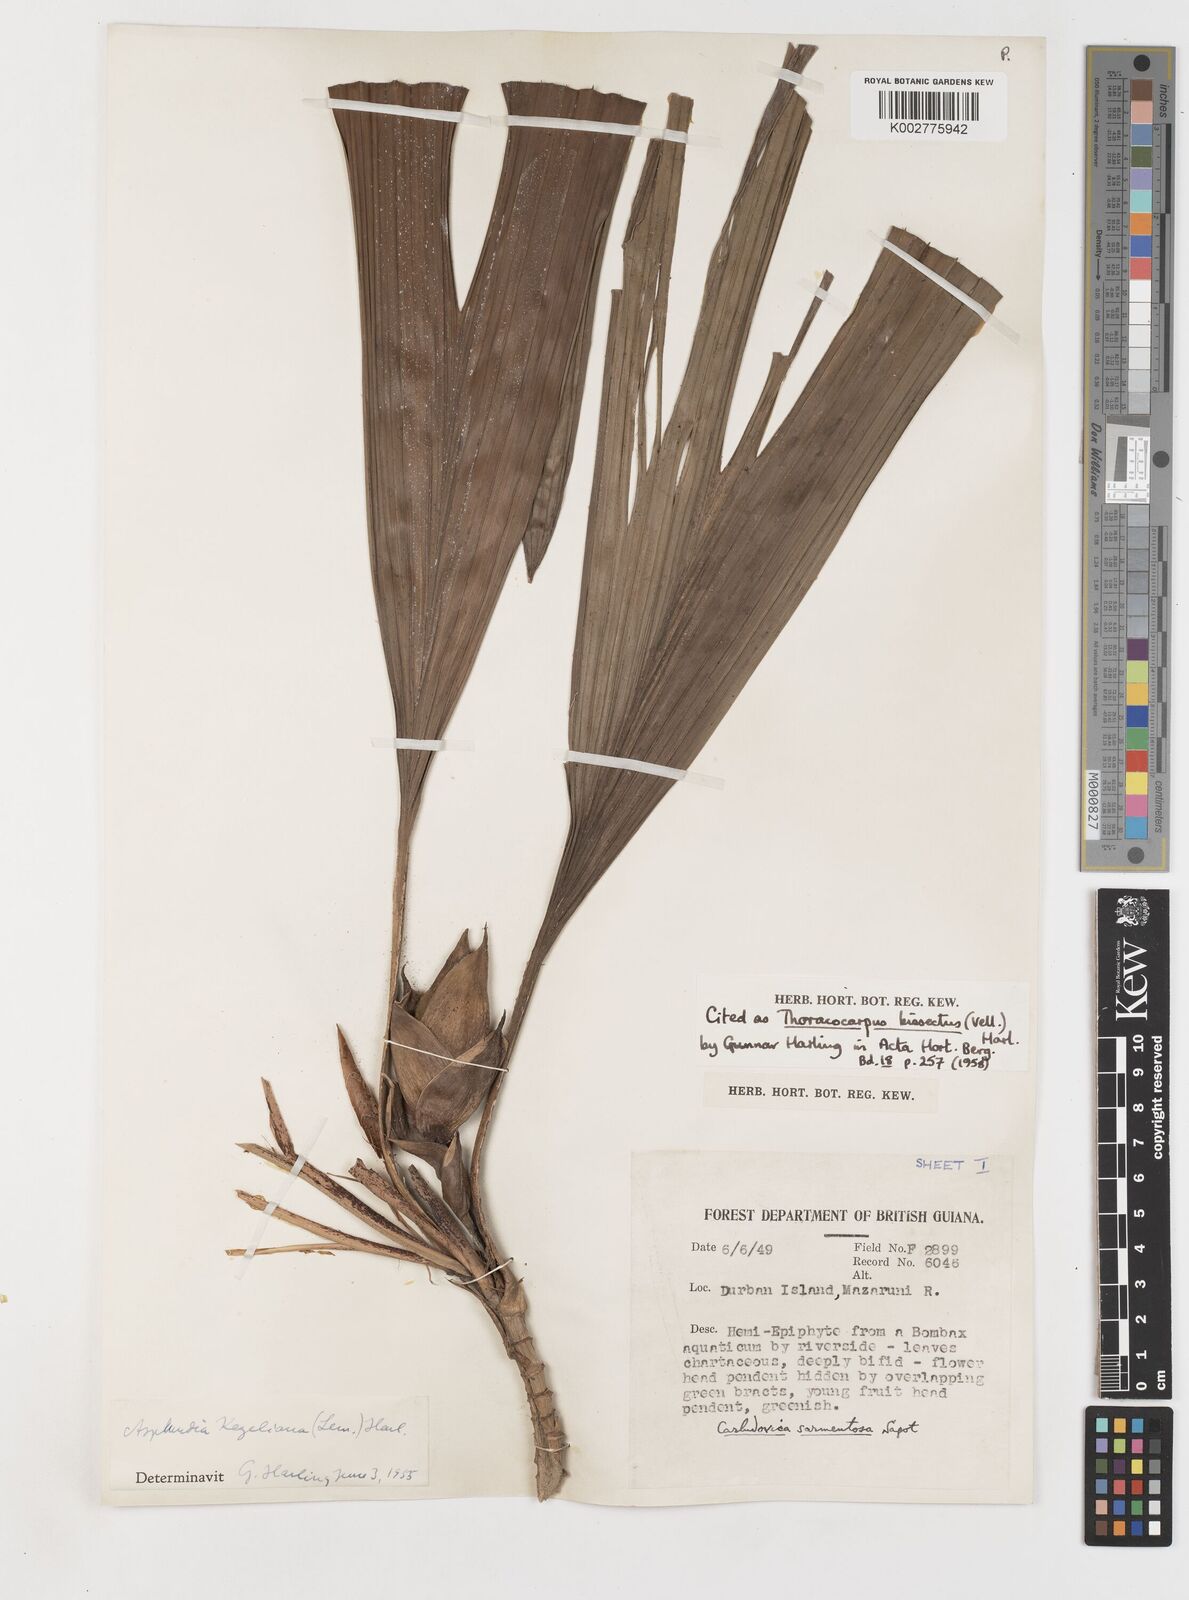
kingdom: Plantae
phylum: Tracheophyta
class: Liliopsida
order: Pandanales
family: Cyclanthaceae
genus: Thoracocarpus
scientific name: Thoracocarpus bissectus
